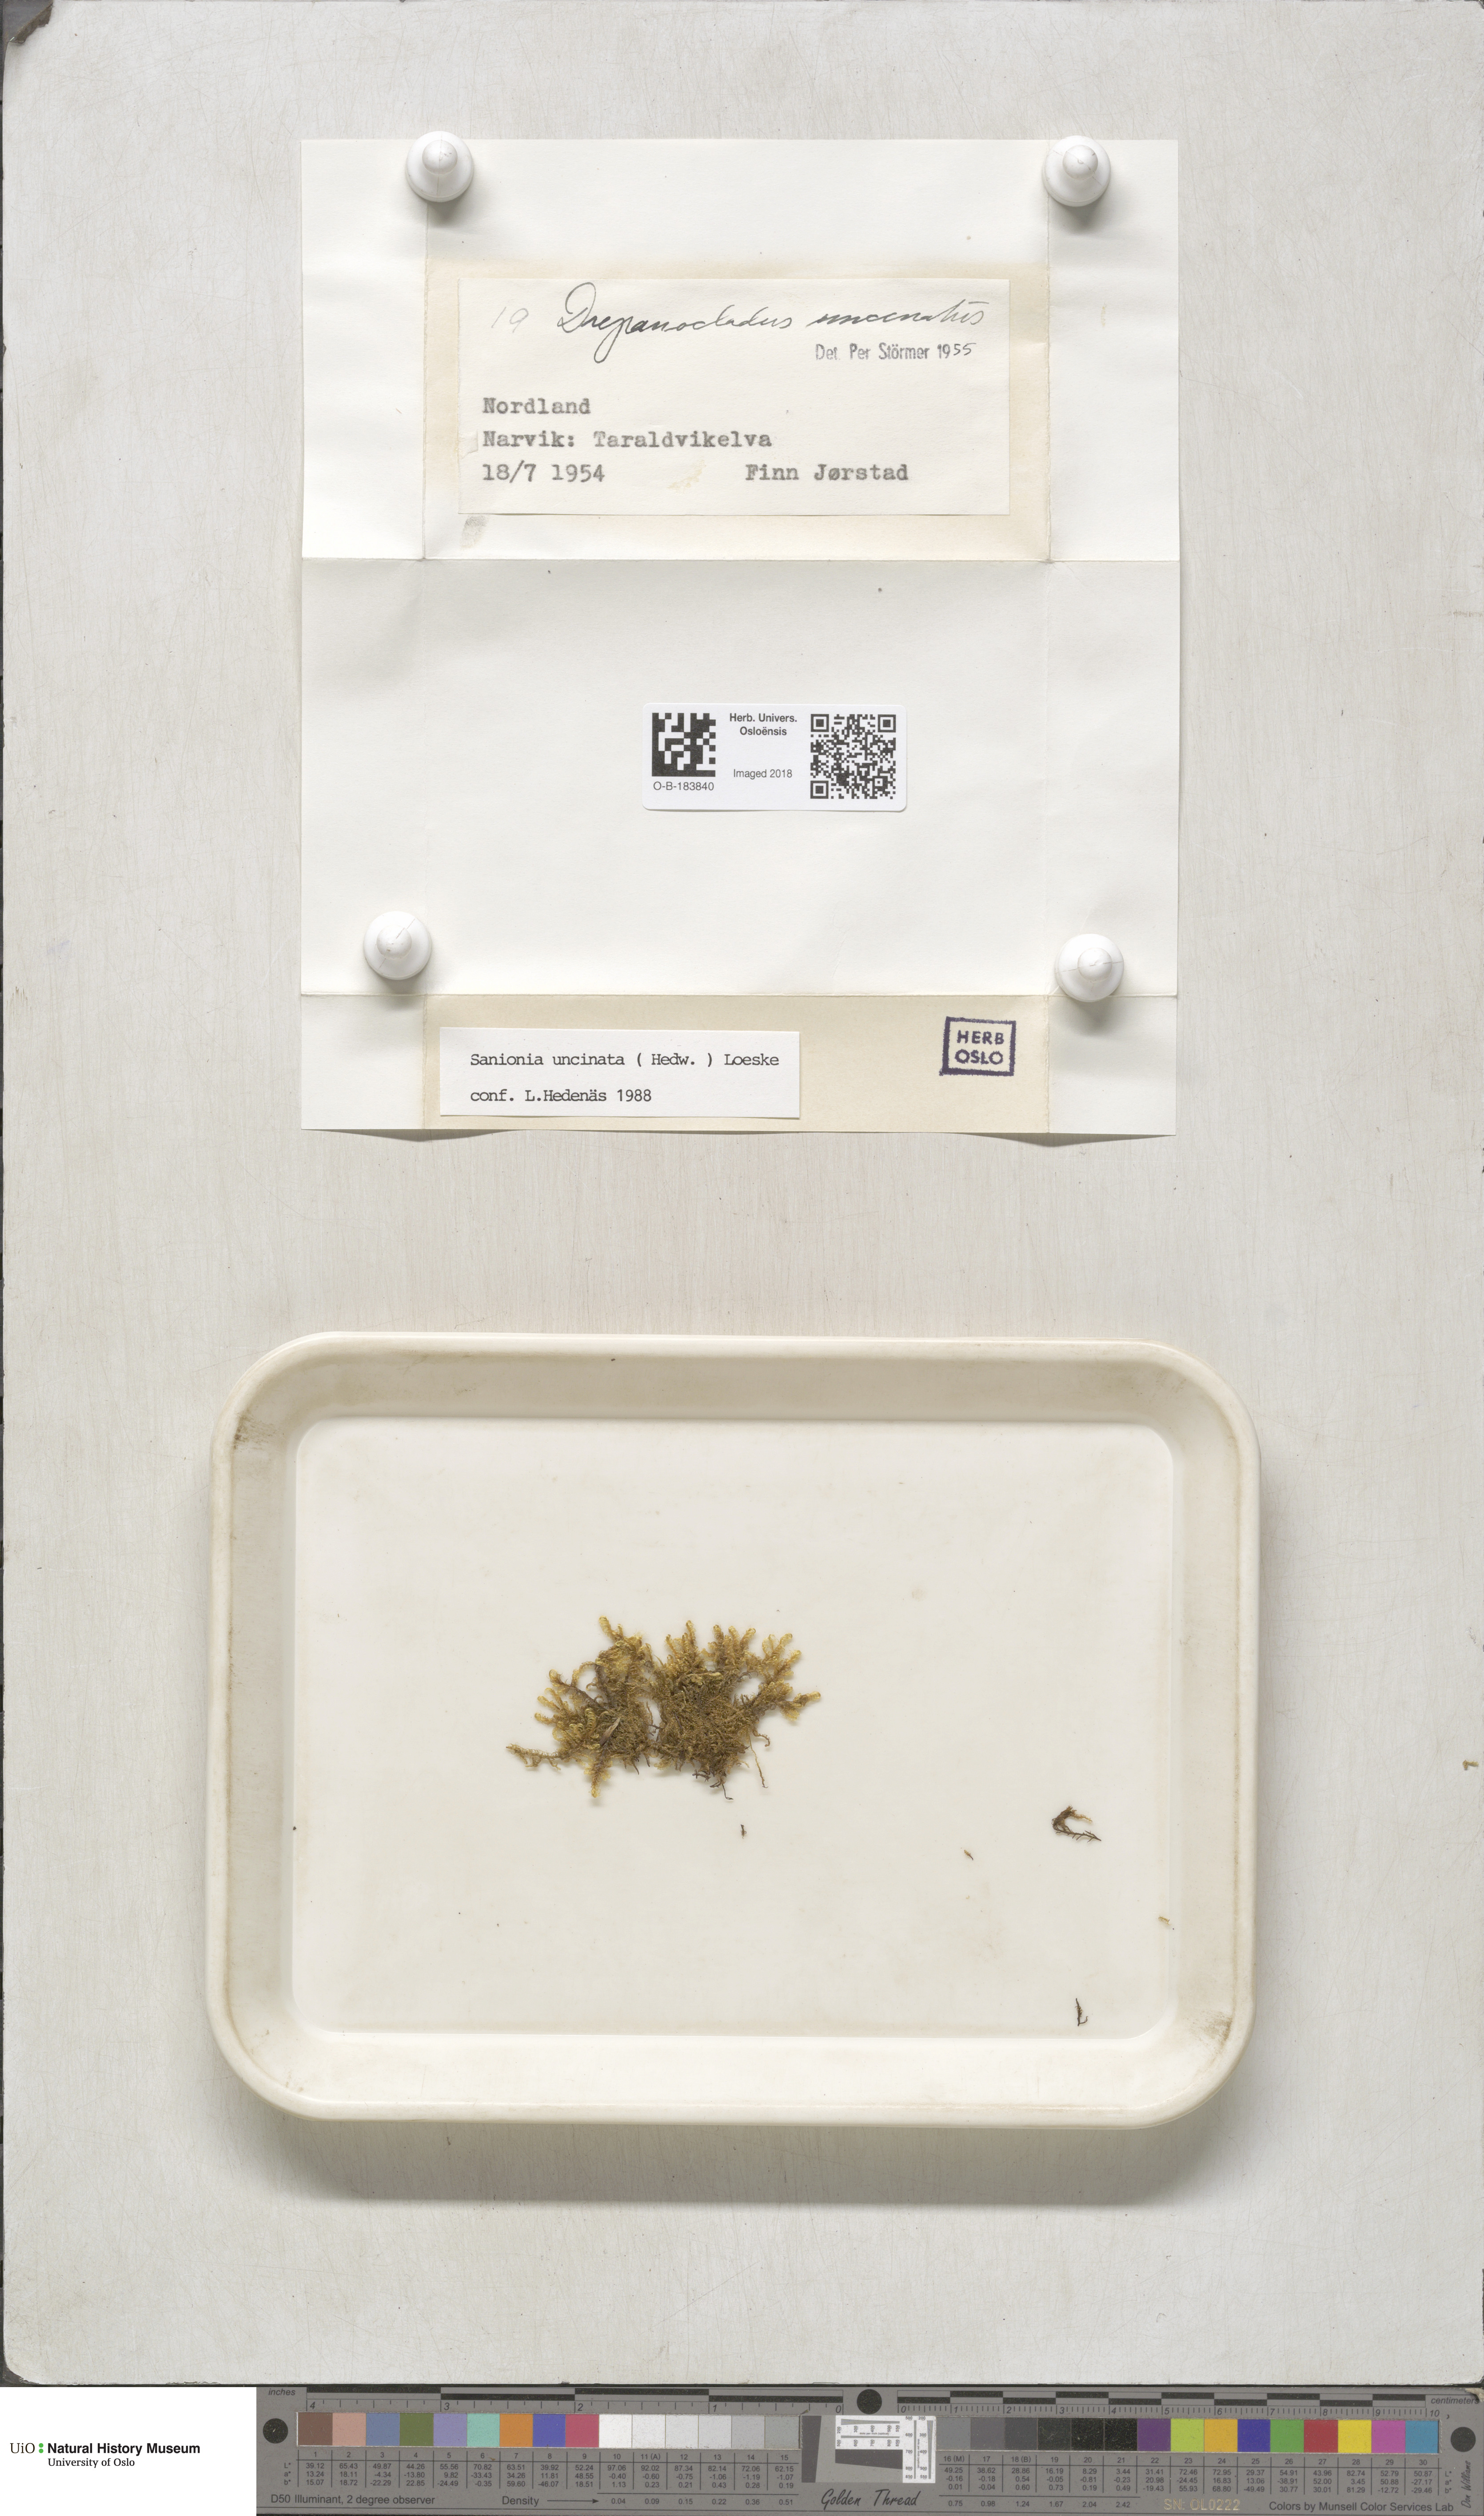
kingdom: Plantae
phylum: Bryophyta
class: Bryopsida
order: Hypnales
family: Scorpidiaceae
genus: Sanionia
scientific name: Sanionia uncinata
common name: Sickle moss
